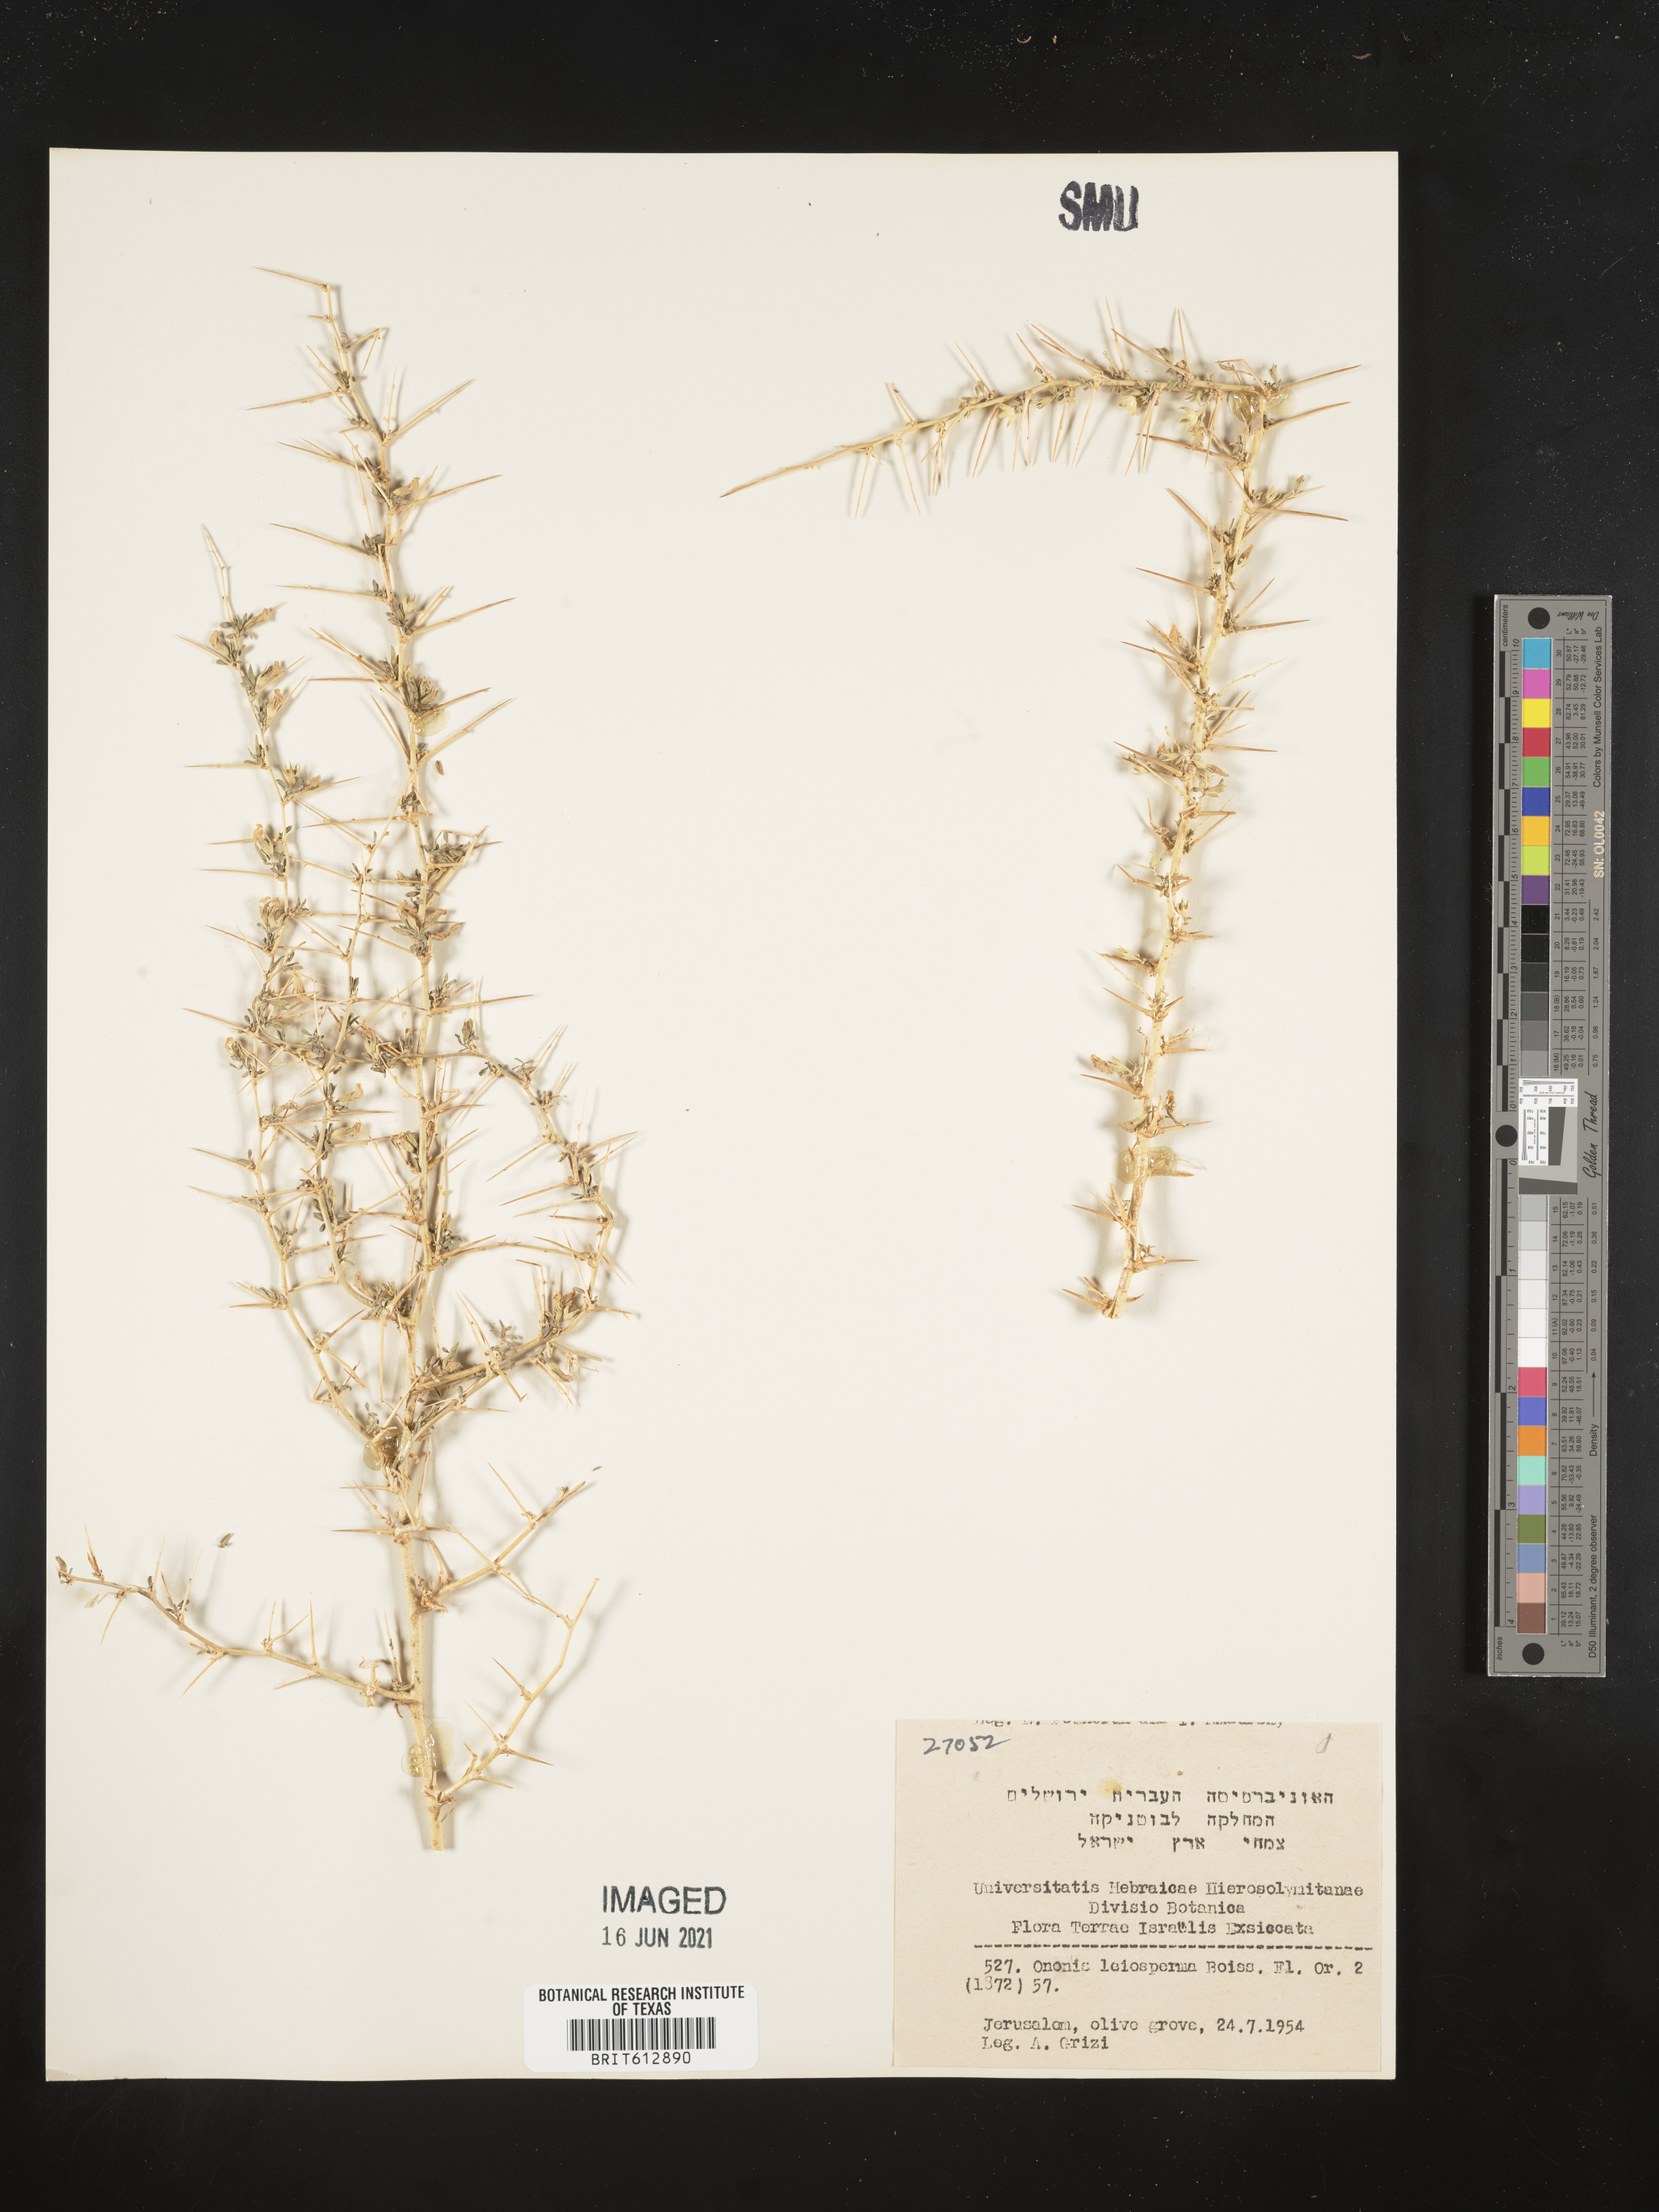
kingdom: Plantae
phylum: Tracheophyta
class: Magnoliopsida
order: Fabales
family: Fabaceae
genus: Ononis
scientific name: Ononis spinosa
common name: Spiny restharrow
